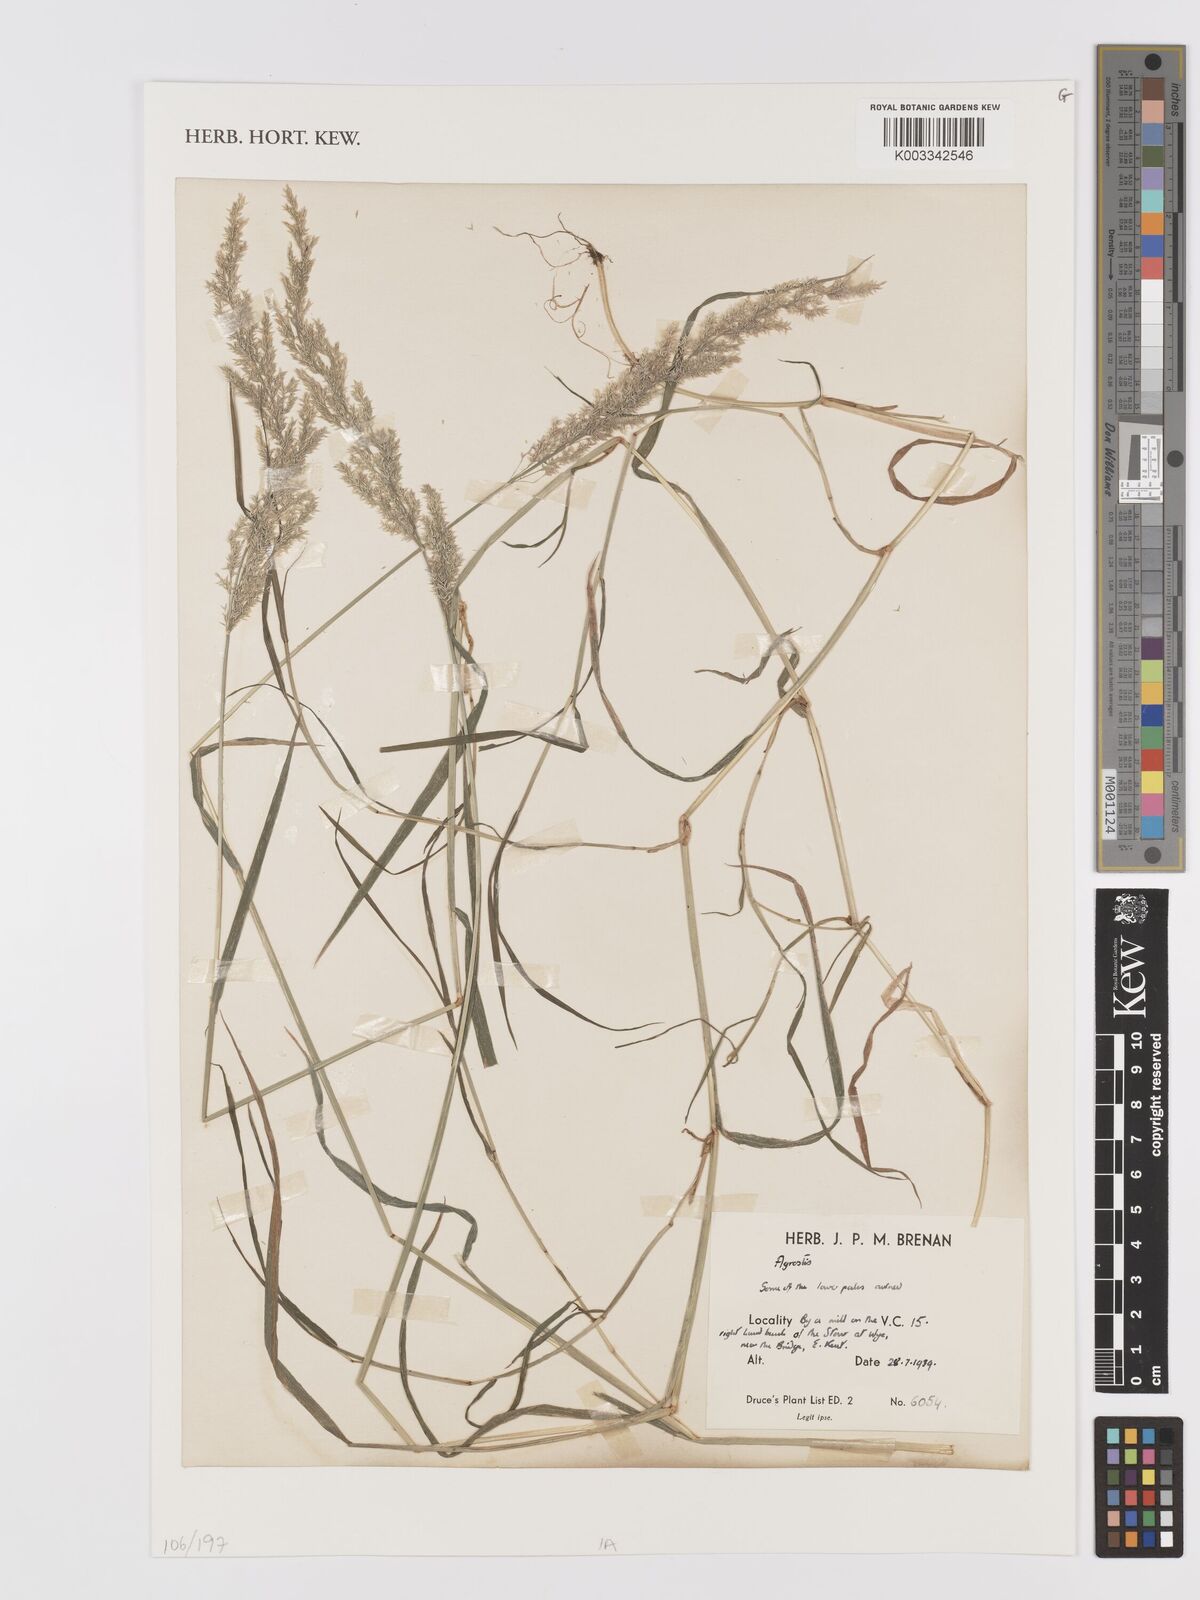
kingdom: Plantae
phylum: Tracheophyta
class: Liliopsida
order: Poales
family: Poaceae
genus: Agrostis
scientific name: Agrostis
